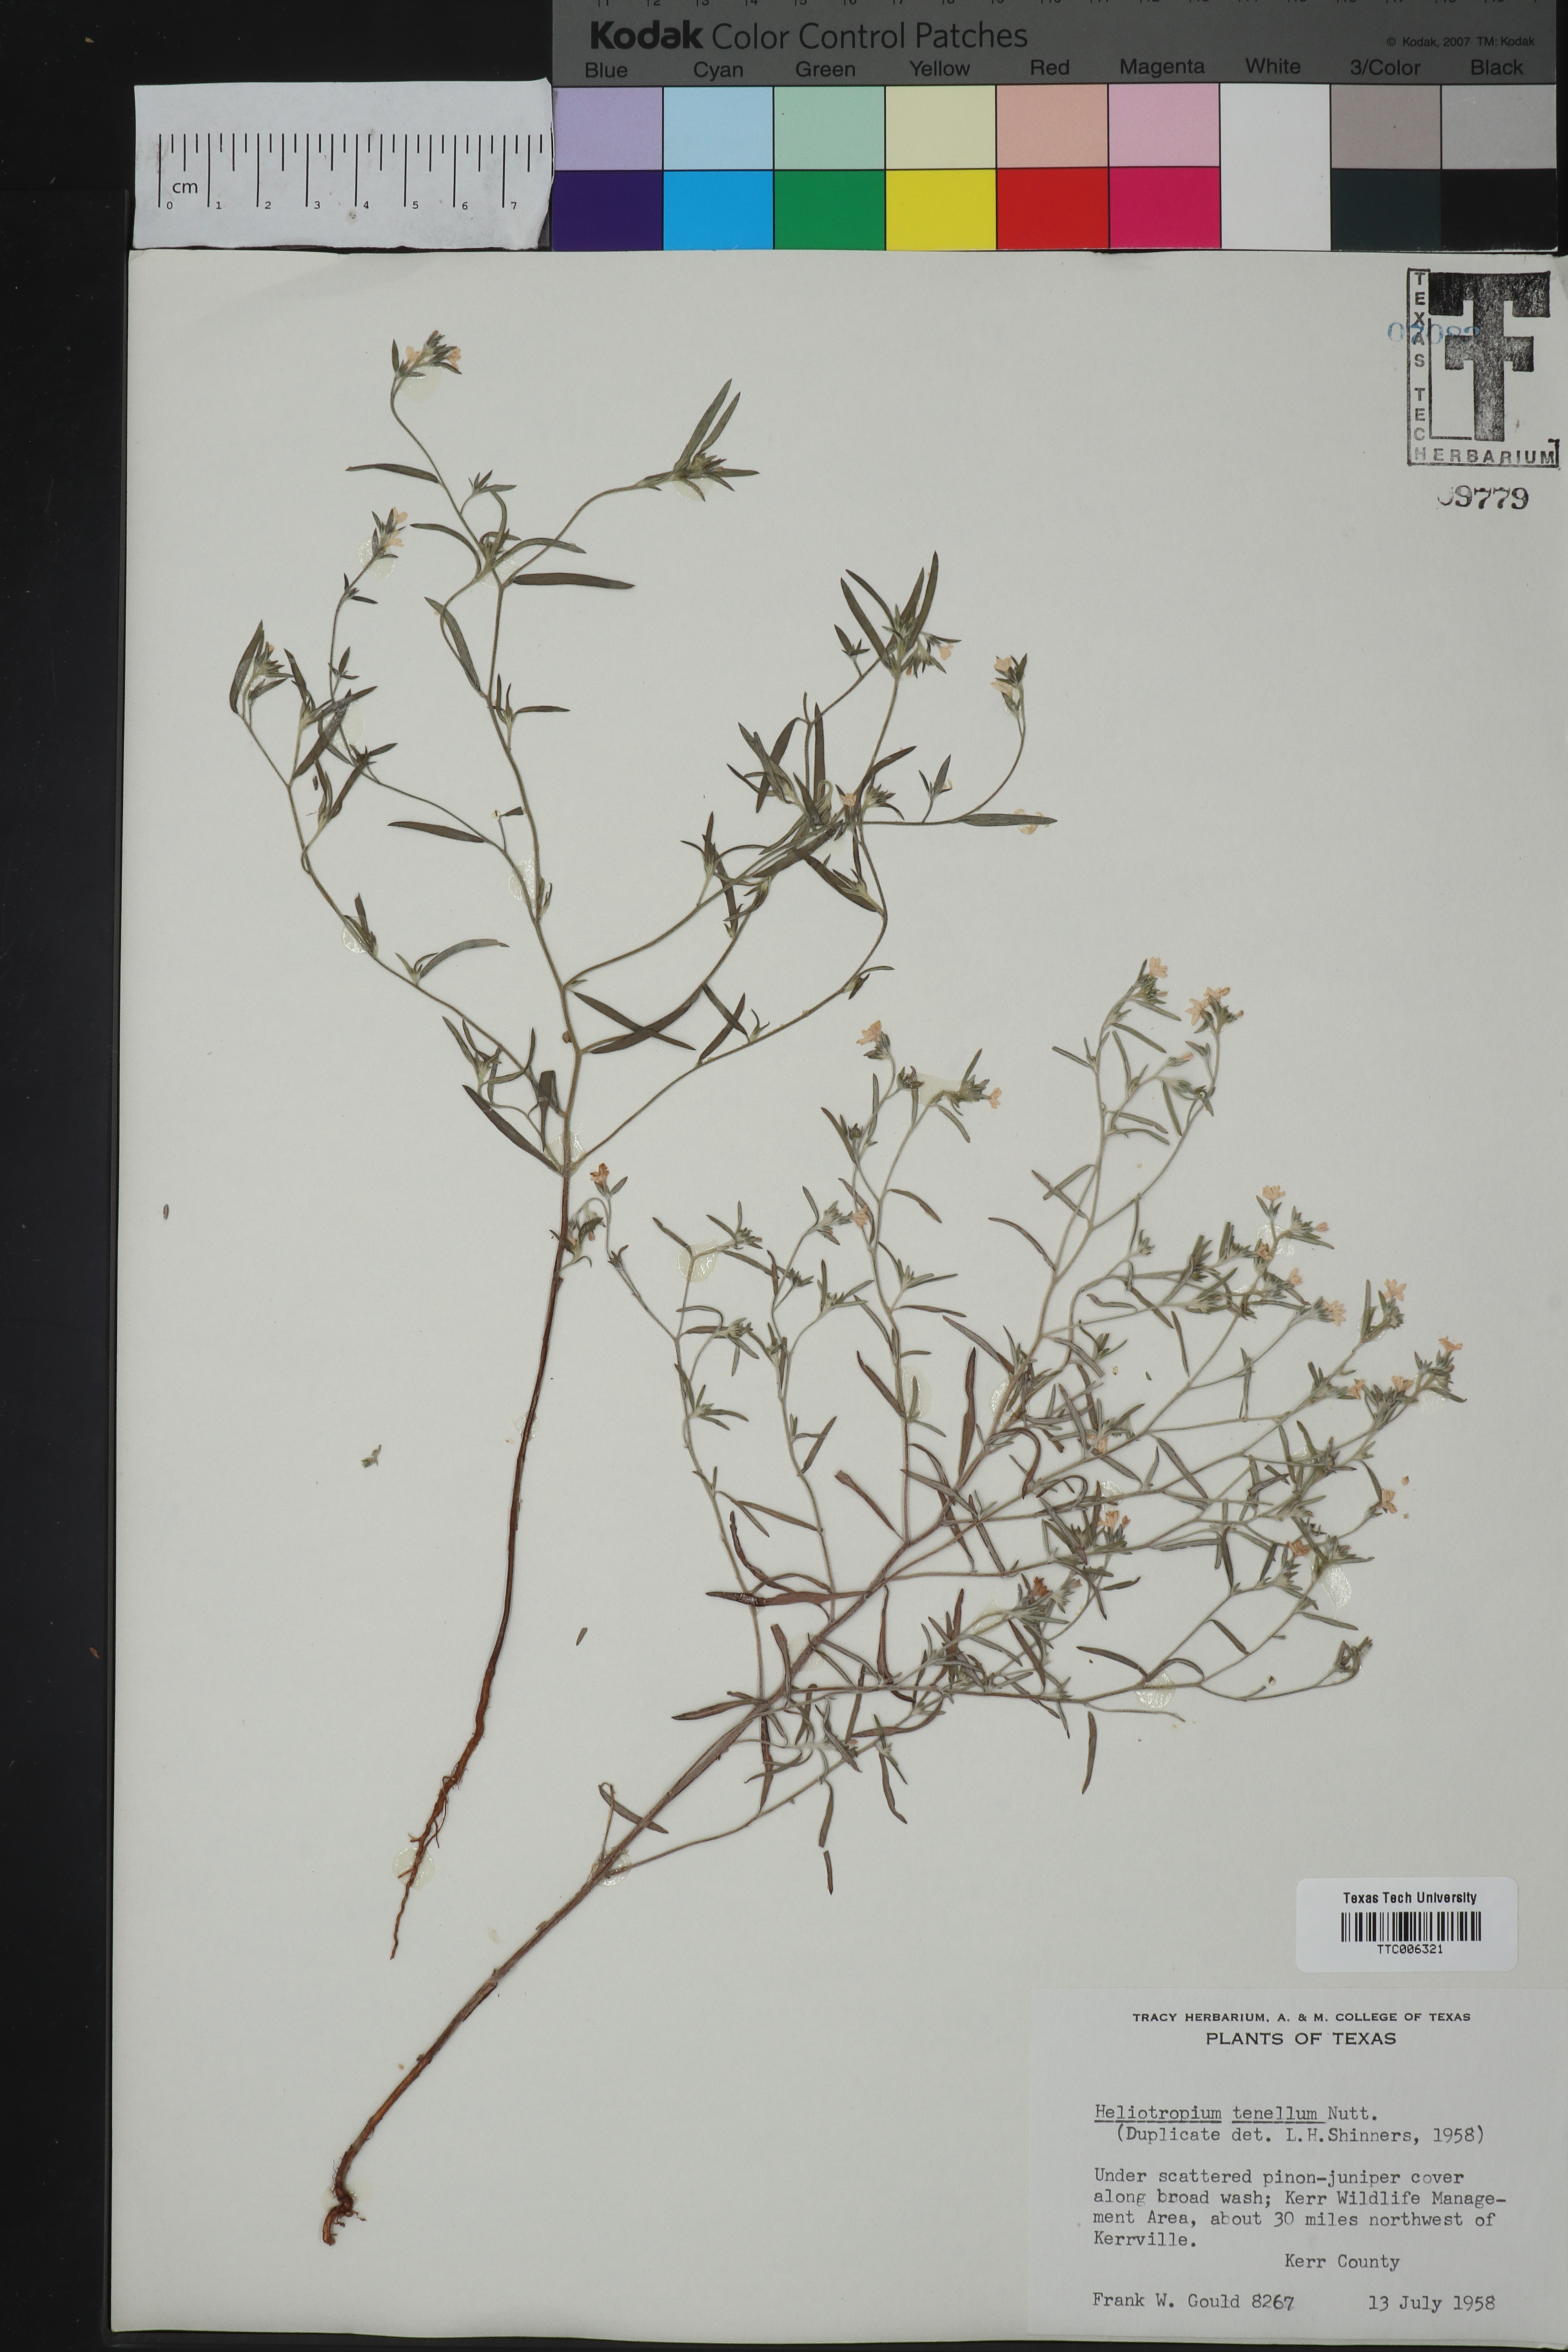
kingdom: Plantae
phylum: Tracheophyta
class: Magnoliopsida
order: Boraginales
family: Heliotropiaceae
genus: Euploca
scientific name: Euploca tenella
